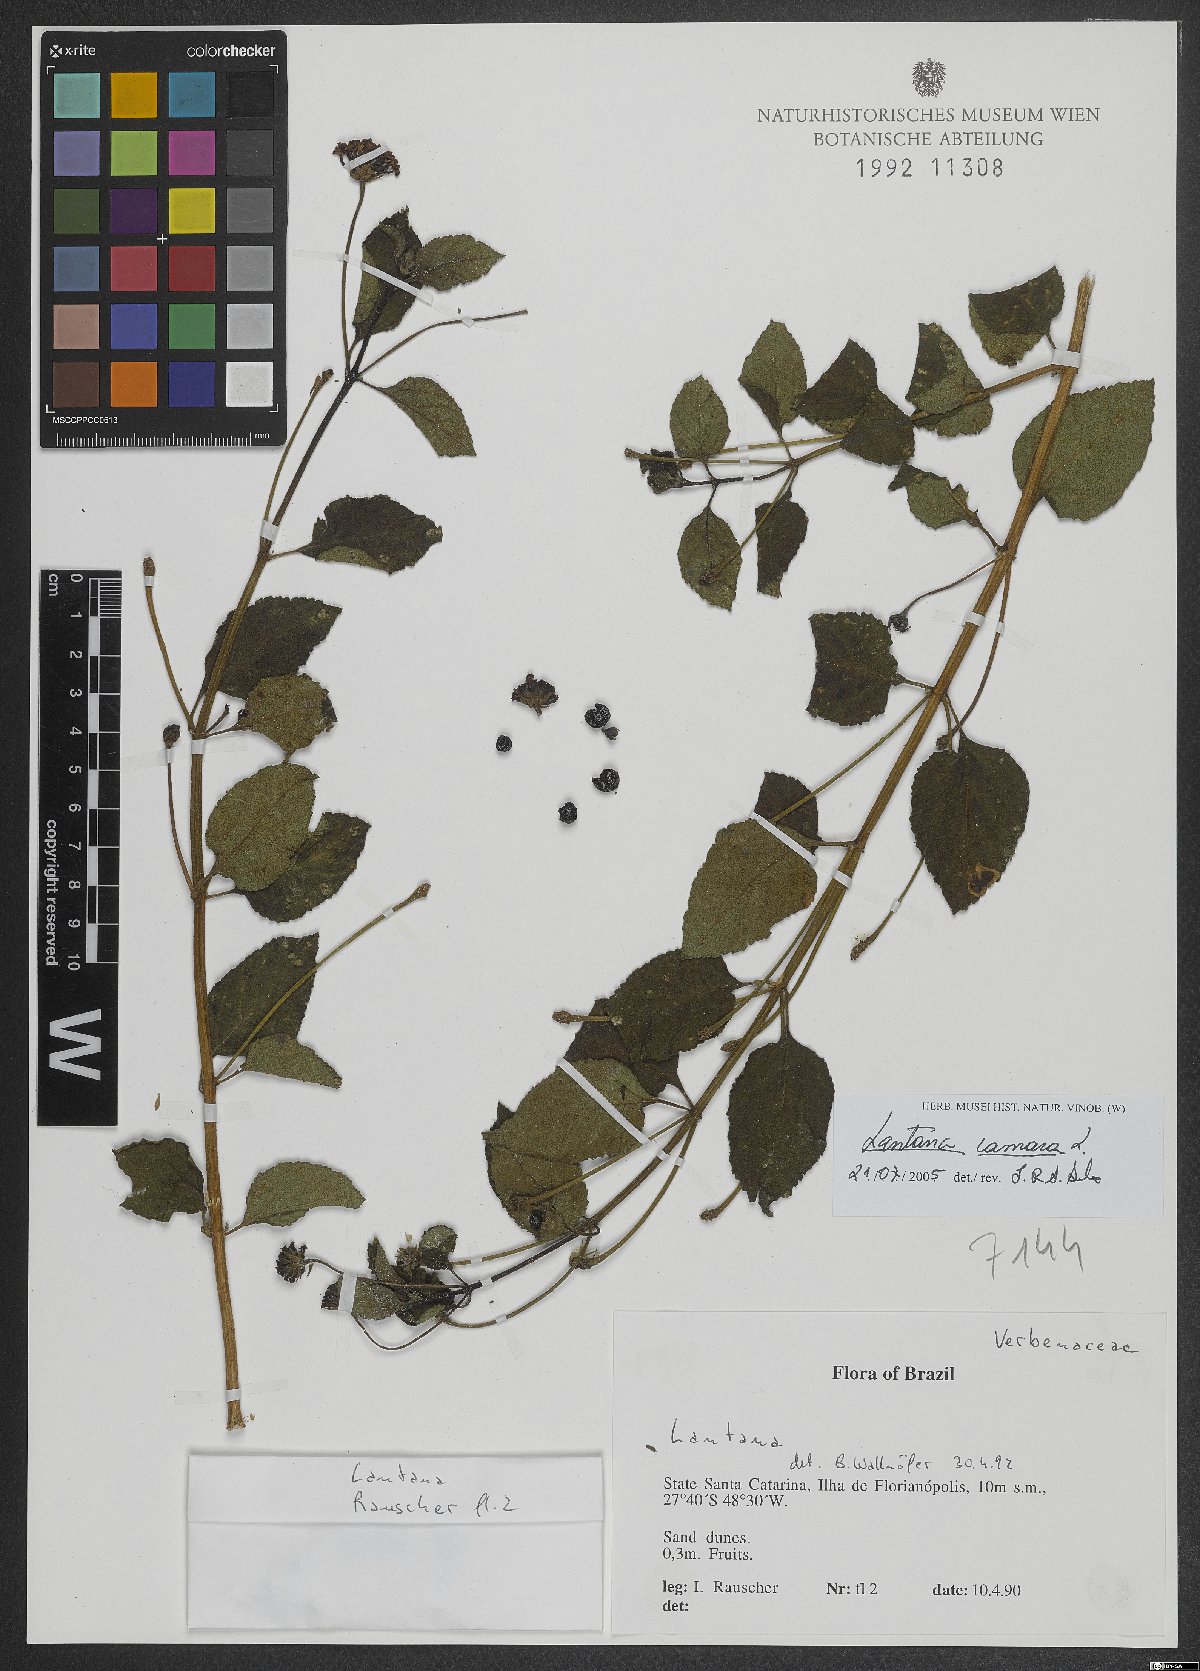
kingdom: Plantae
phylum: Tracheophyta
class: Magnoliopsida
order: Lamiales
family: Verbenaceae
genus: Lantana
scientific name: Lantana camara
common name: Lantana
